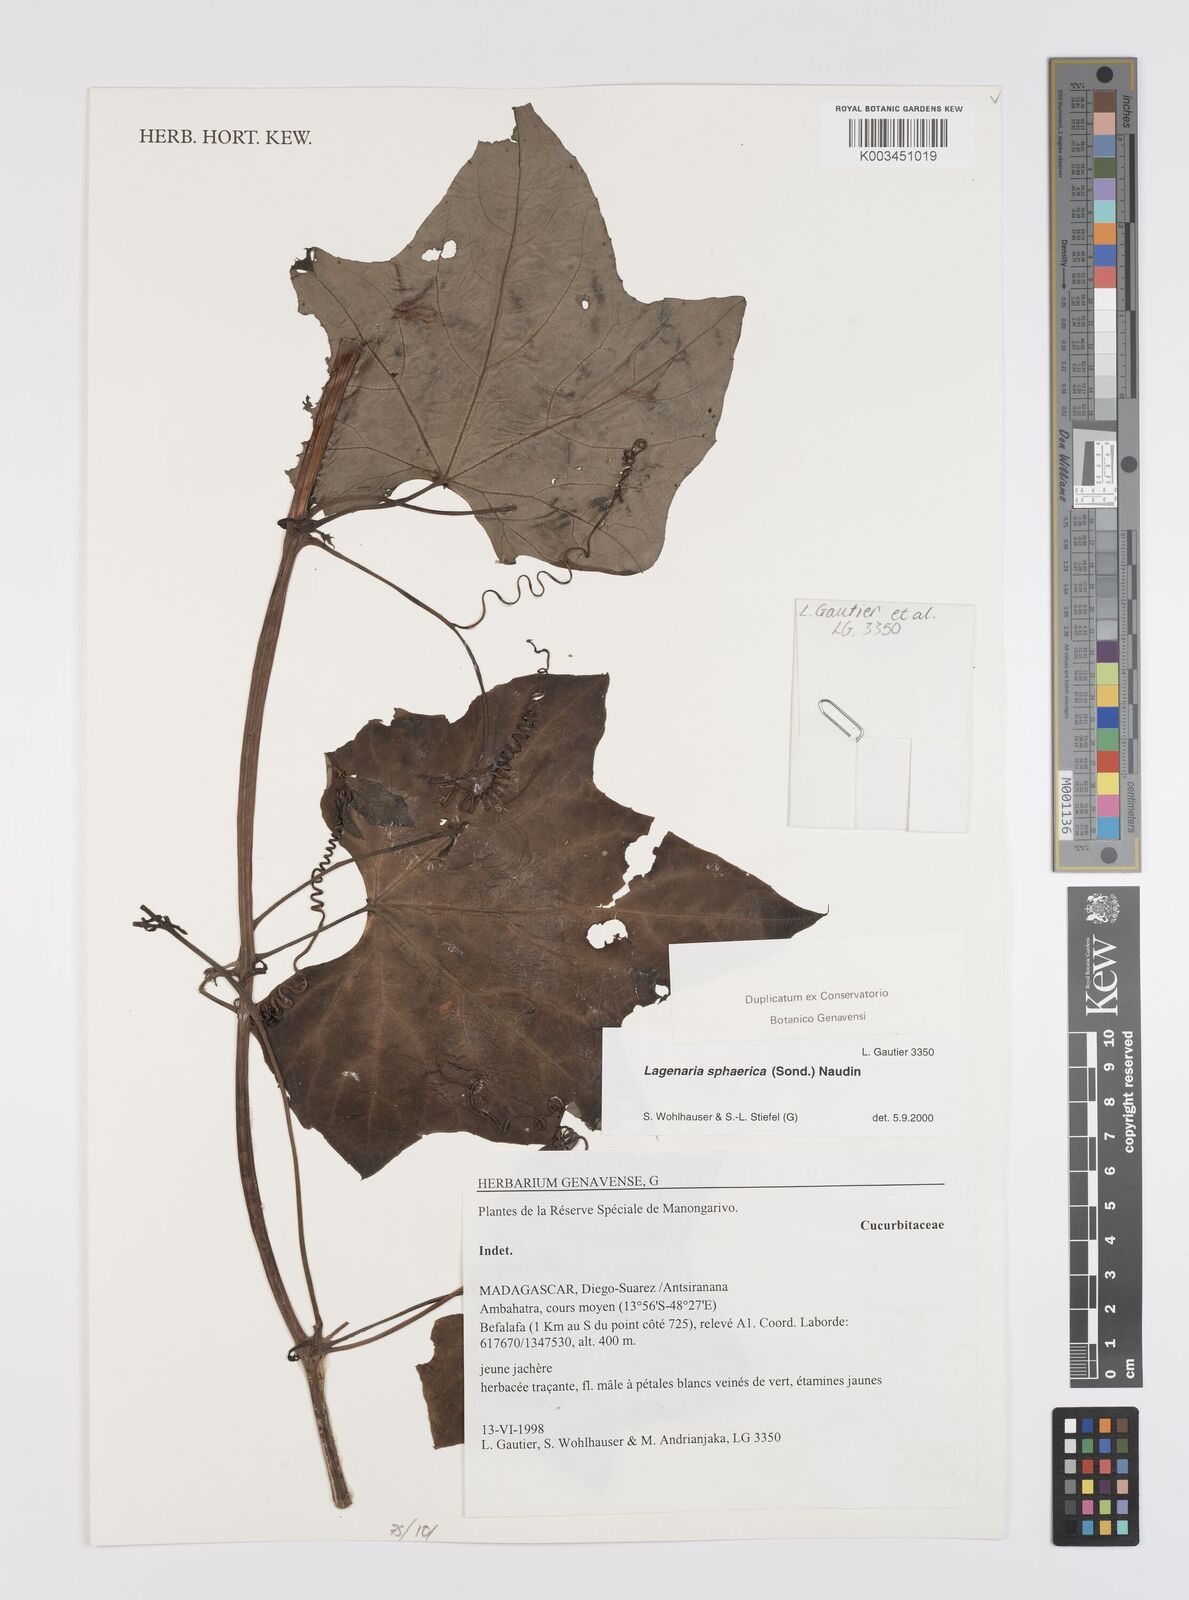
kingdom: Plantae
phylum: Tracheophyta
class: Magnoliopsida
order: Cucurbitales
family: Cucurbitaceae
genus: Lagenaria
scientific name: Lagenaria sphaerica
